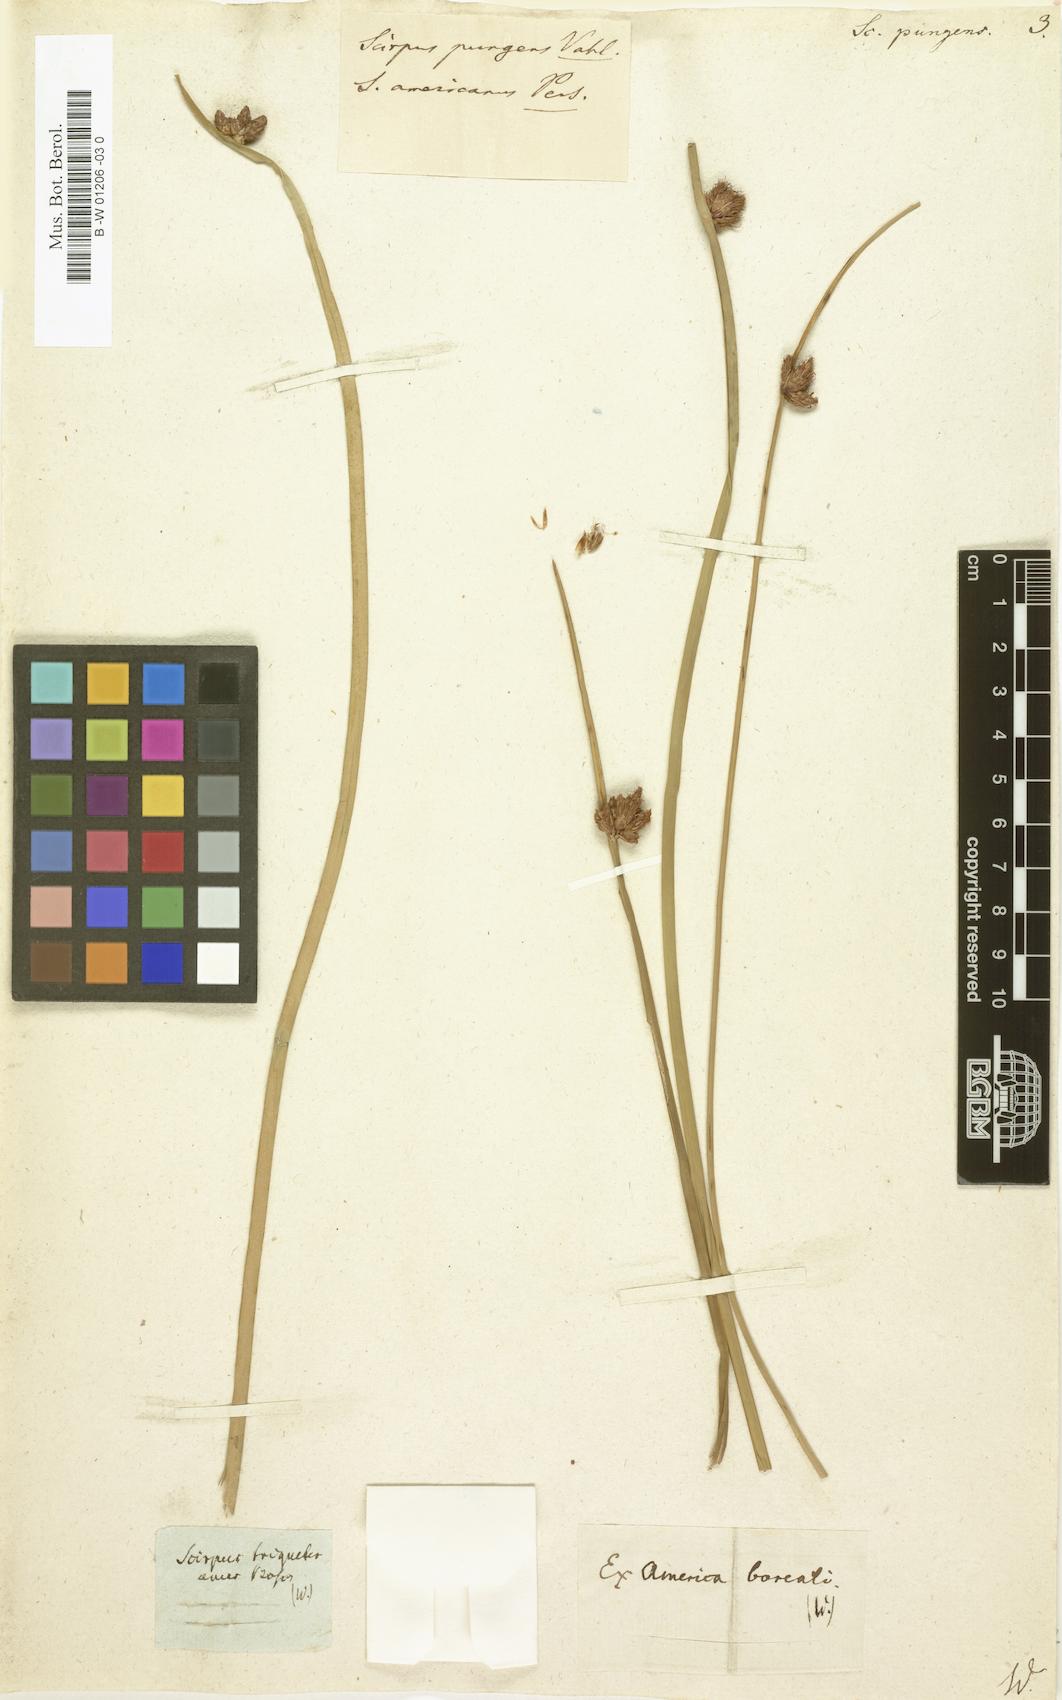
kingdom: Plantae
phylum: Tracheophyta
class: Liliopsida
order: Poales
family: Cyperaceae
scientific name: Cyperaceae
